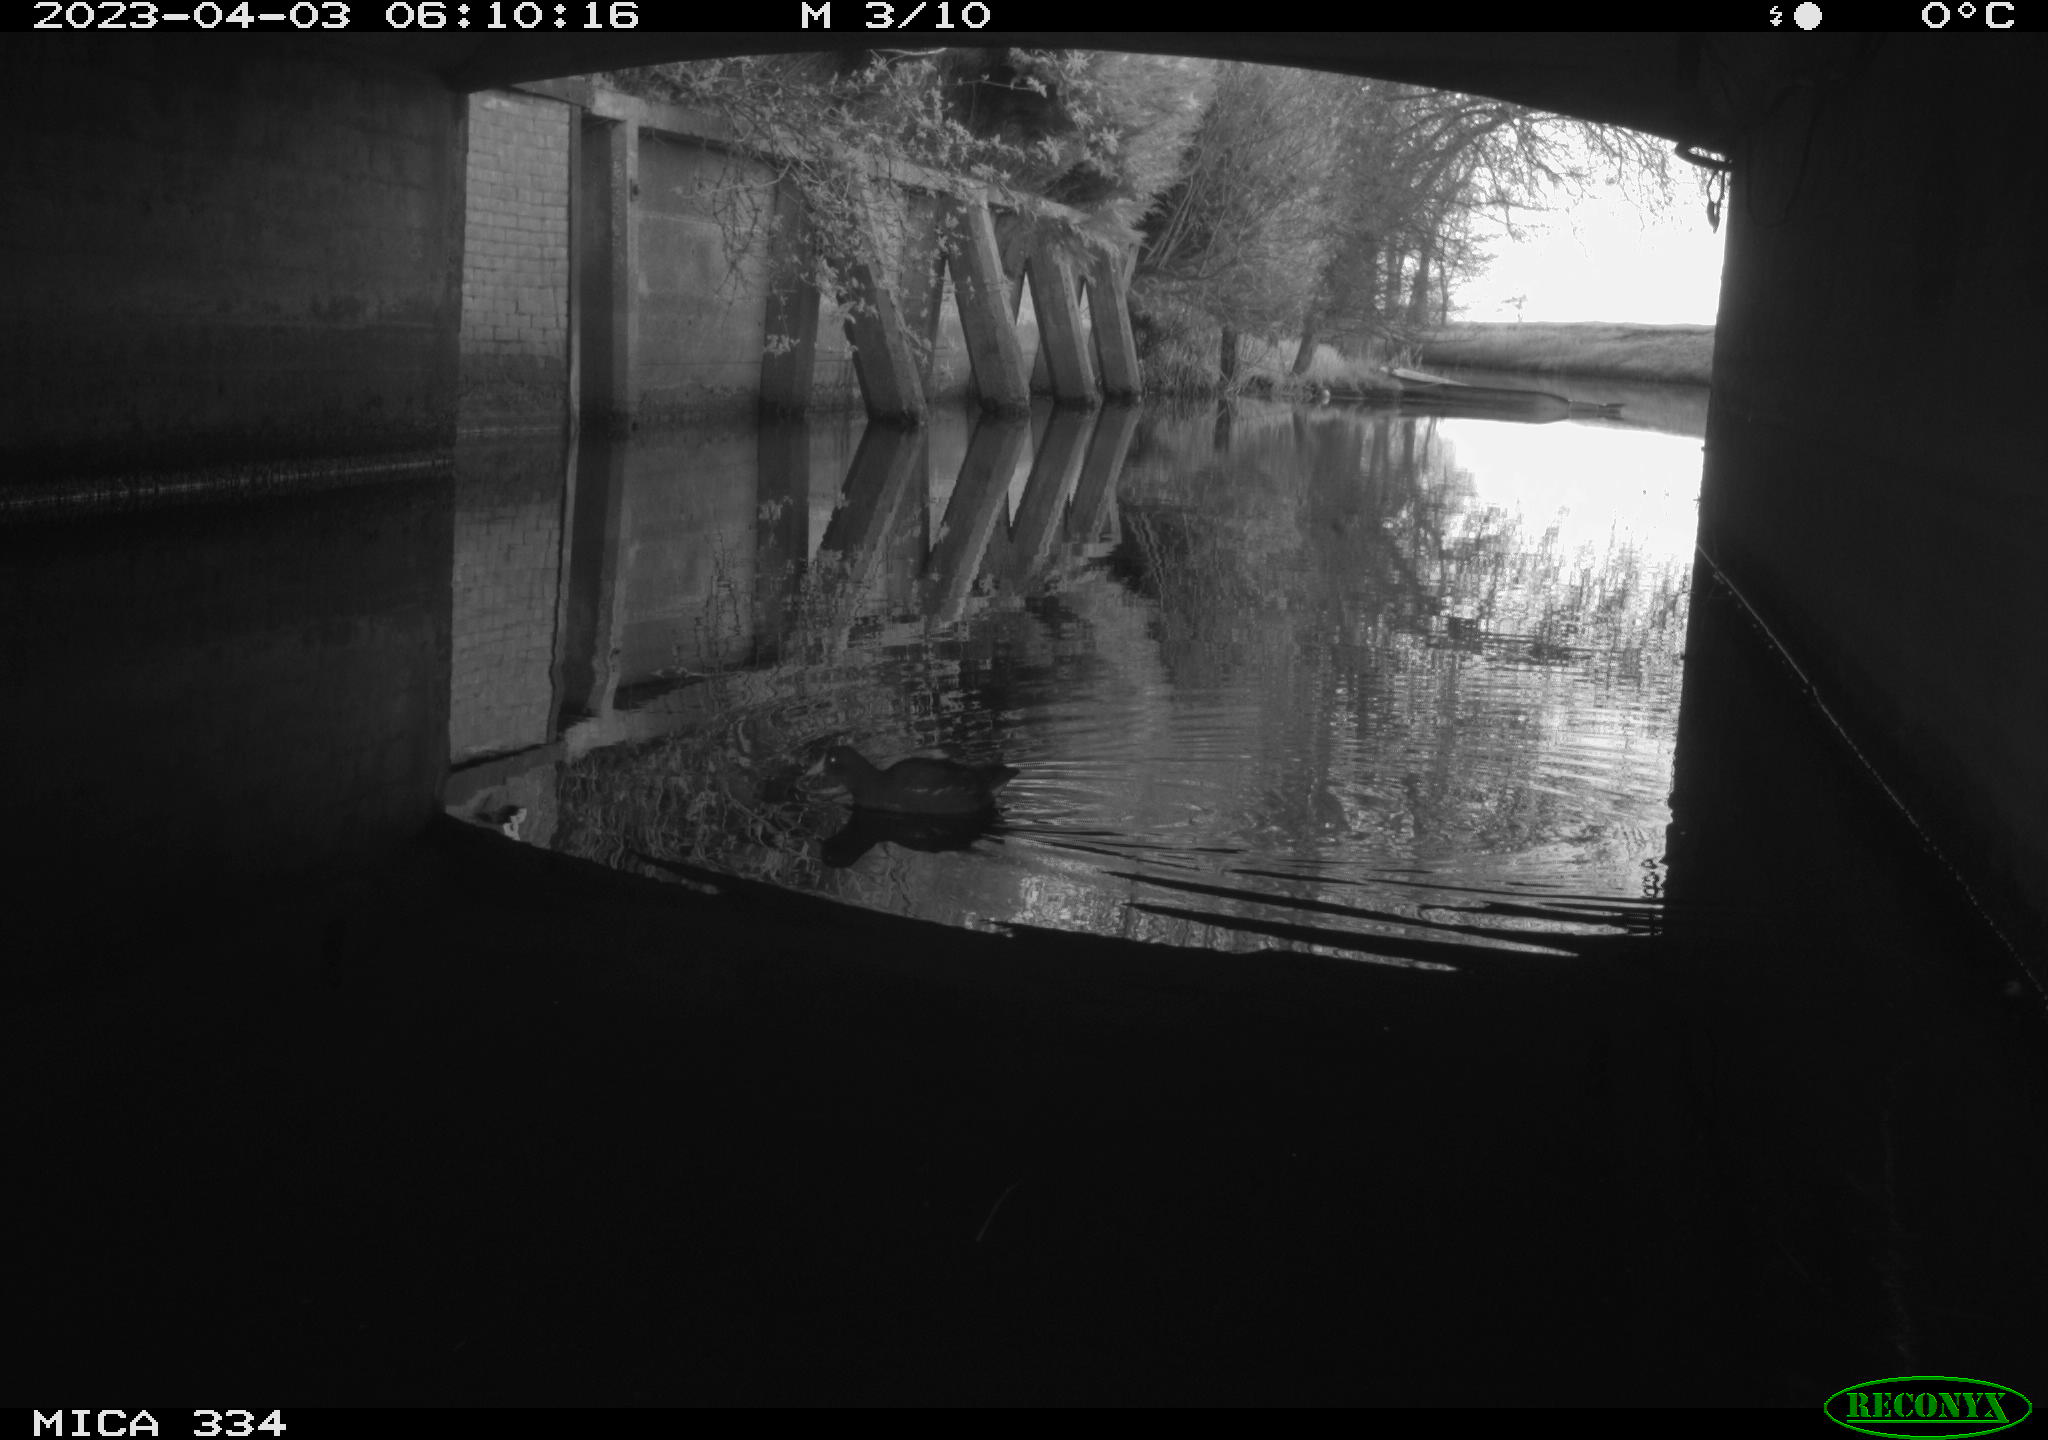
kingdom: Animalia
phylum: Chordata
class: Aves
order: Gruiformes
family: Rallidae
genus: Gallinula
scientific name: Gallinula chloropus
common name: Common moorhen
